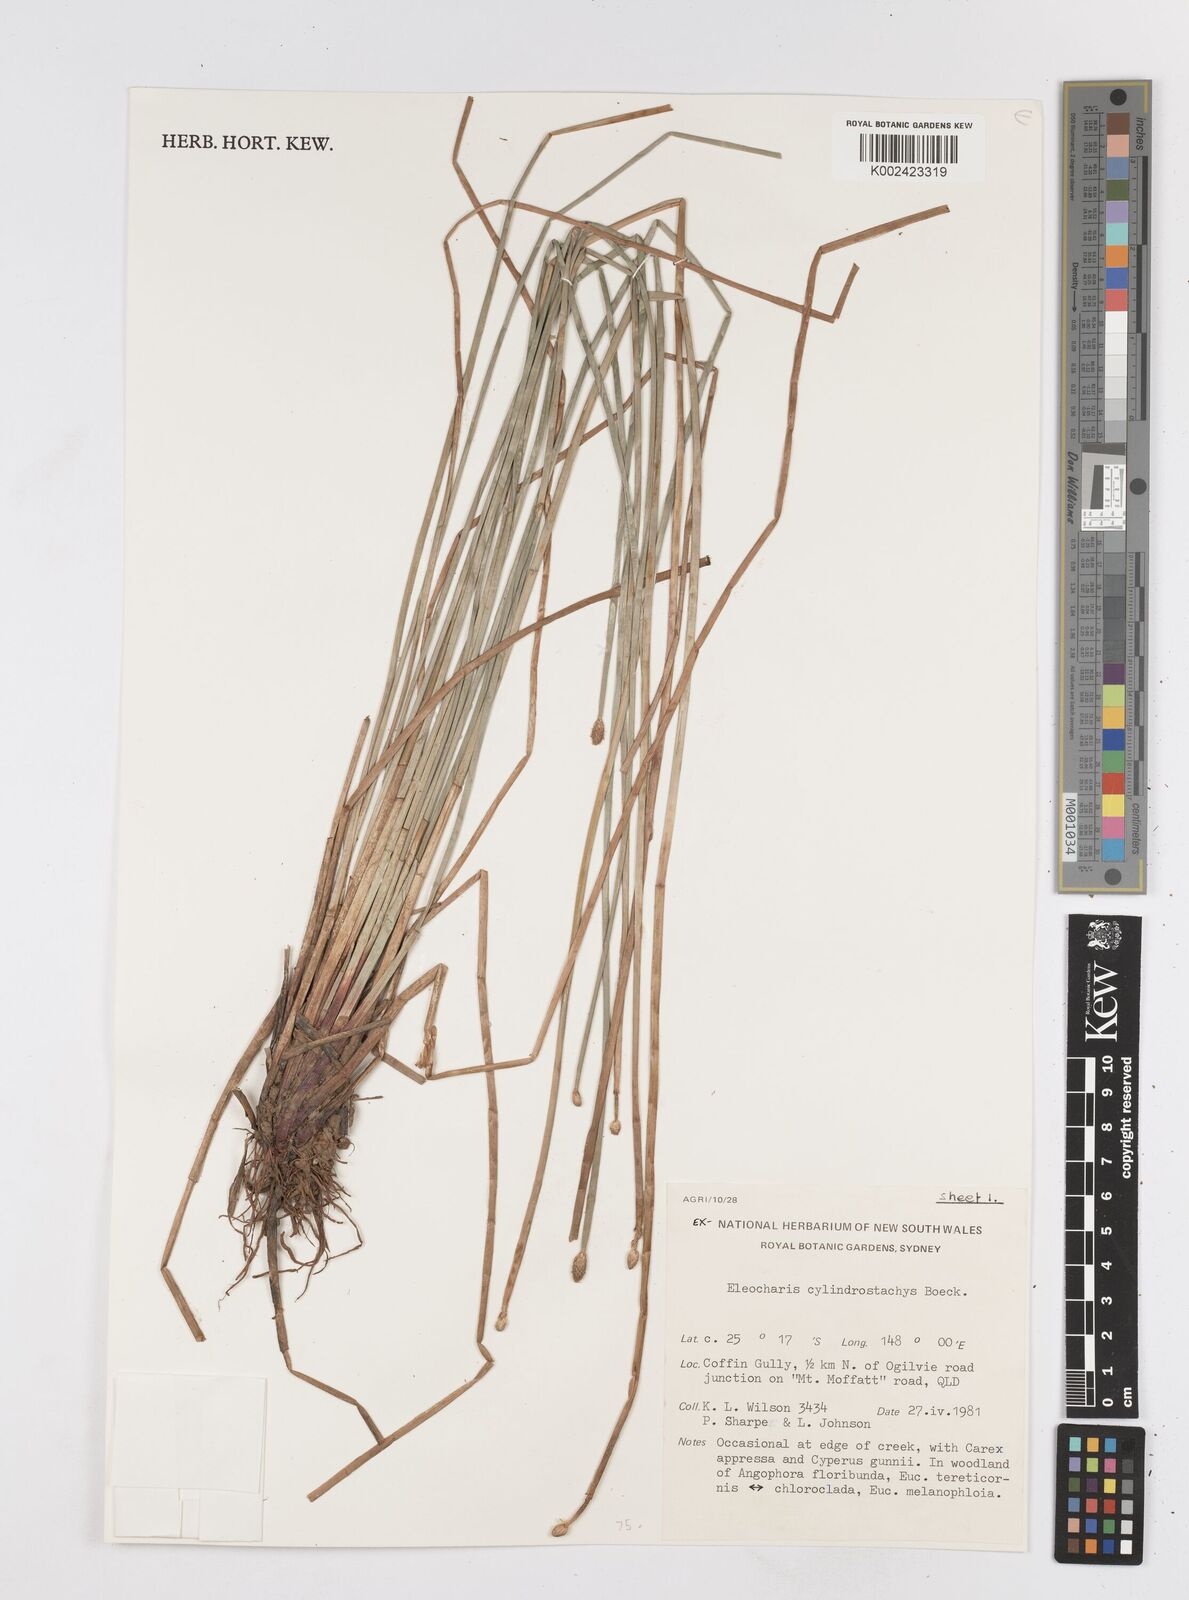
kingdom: Plantae
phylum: Tracheophyta
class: Liliopsida
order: Poales
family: Cyperaceae
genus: Eleocharis
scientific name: Eleocharis cylindrostachys
